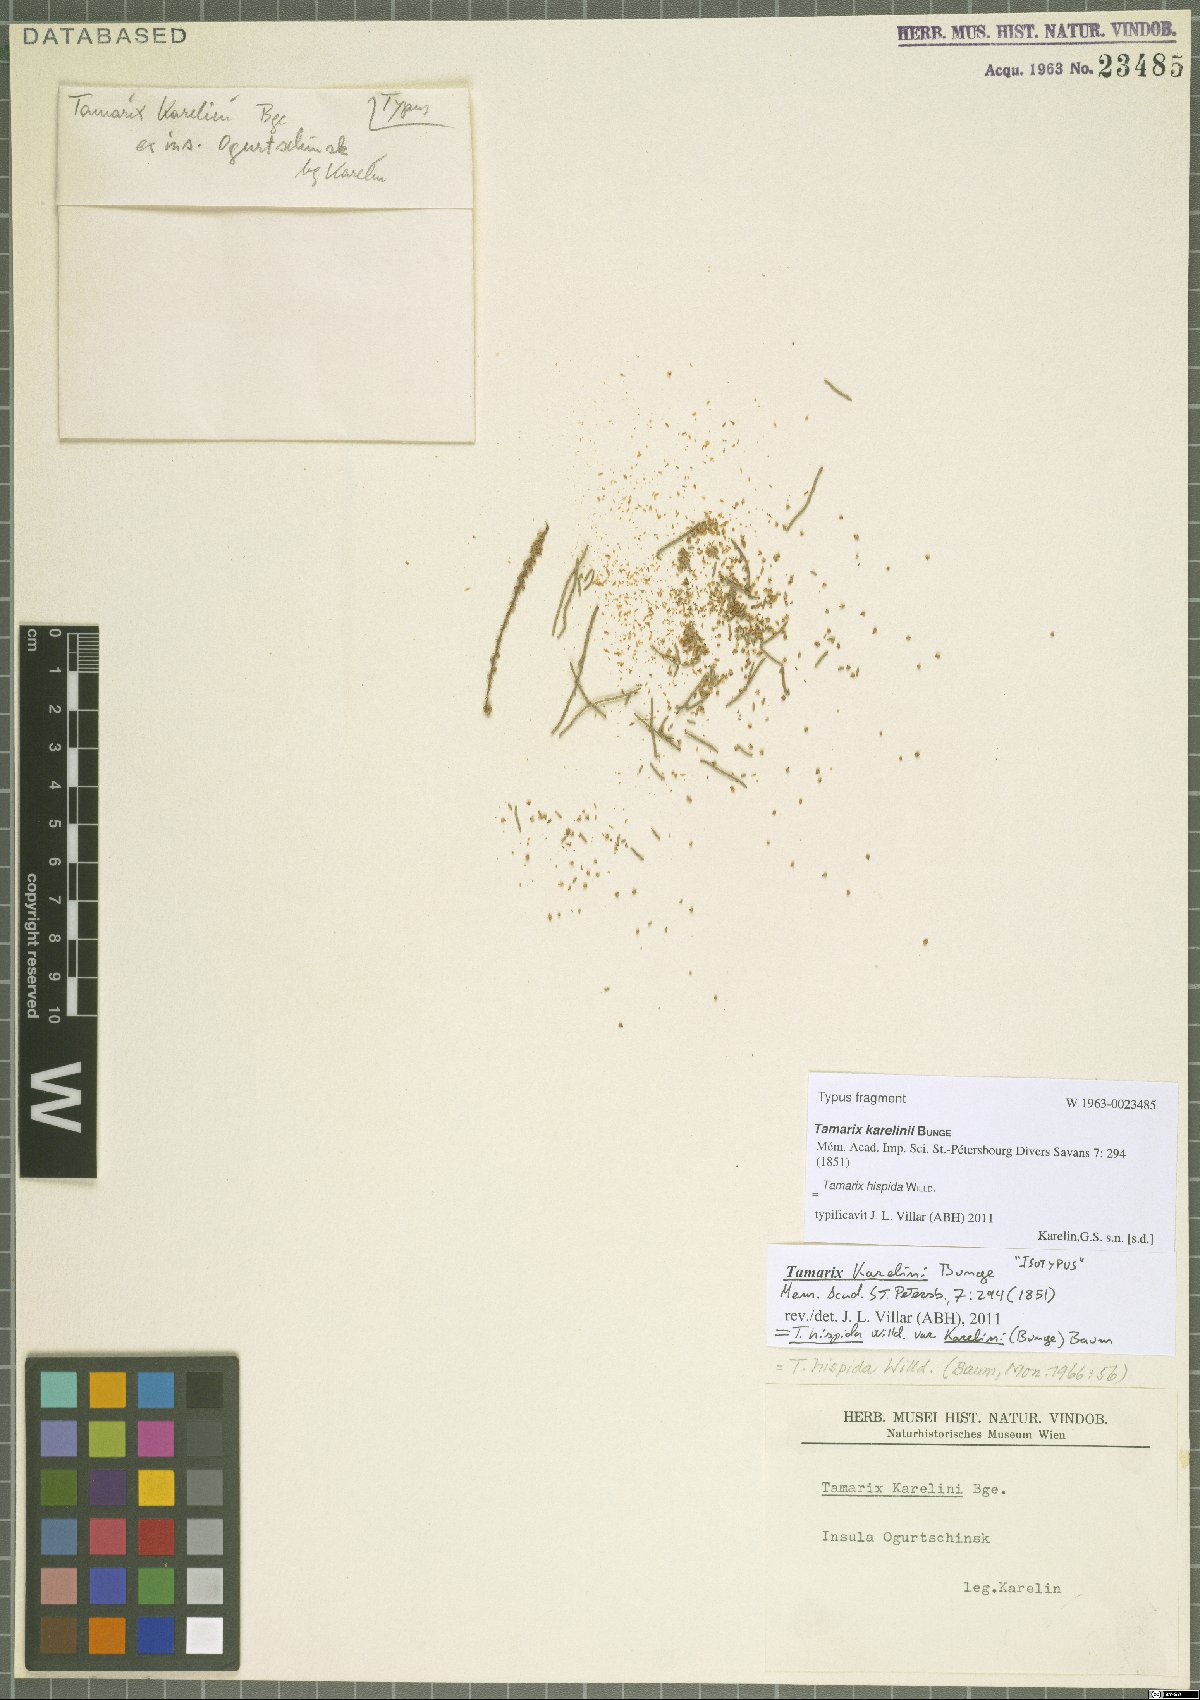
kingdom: Plantae
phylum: Tracheophyta
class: Magnoliopsida
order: Caryophyllales
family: Tamaricaceae
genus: Tamarix
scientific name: Tamarix hispida
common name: Kashgar tamarisk
